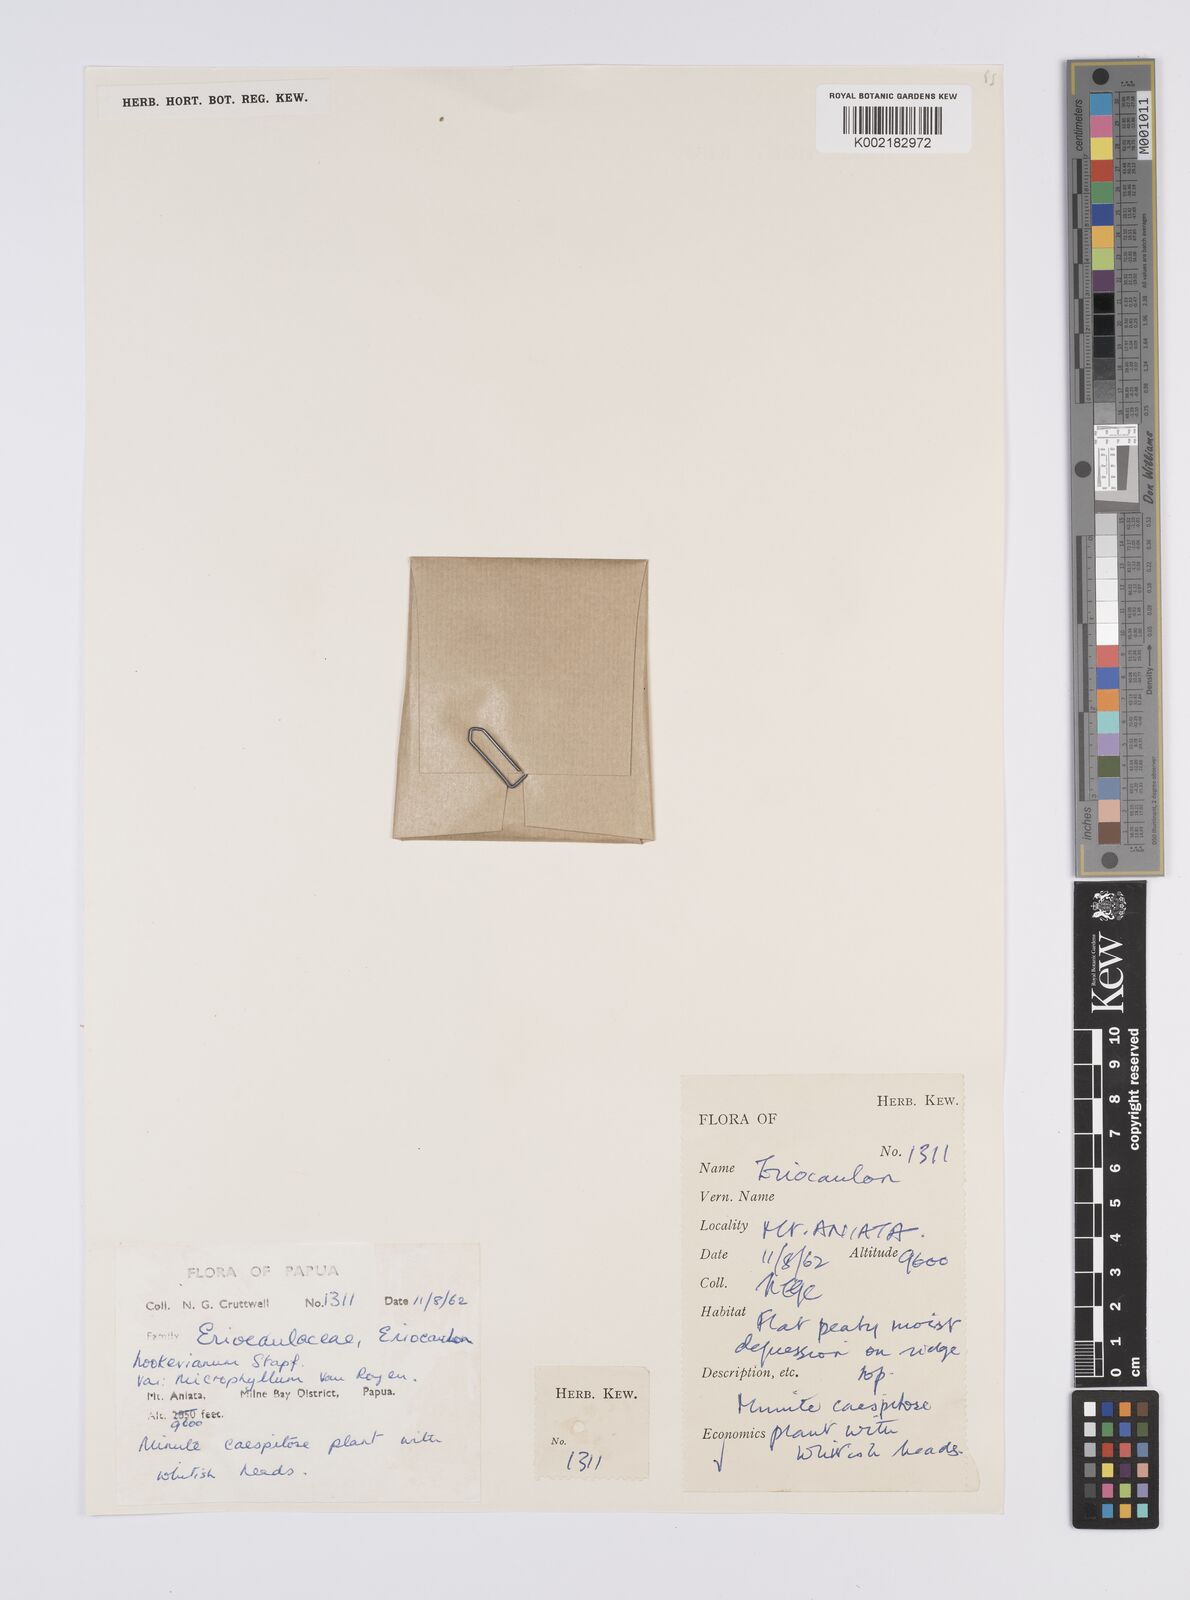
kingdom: Plantae
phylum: Tracheophyta
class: Liliopsida
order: Poales
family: Eriocaulaceae
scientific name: Eriocaulaceae
